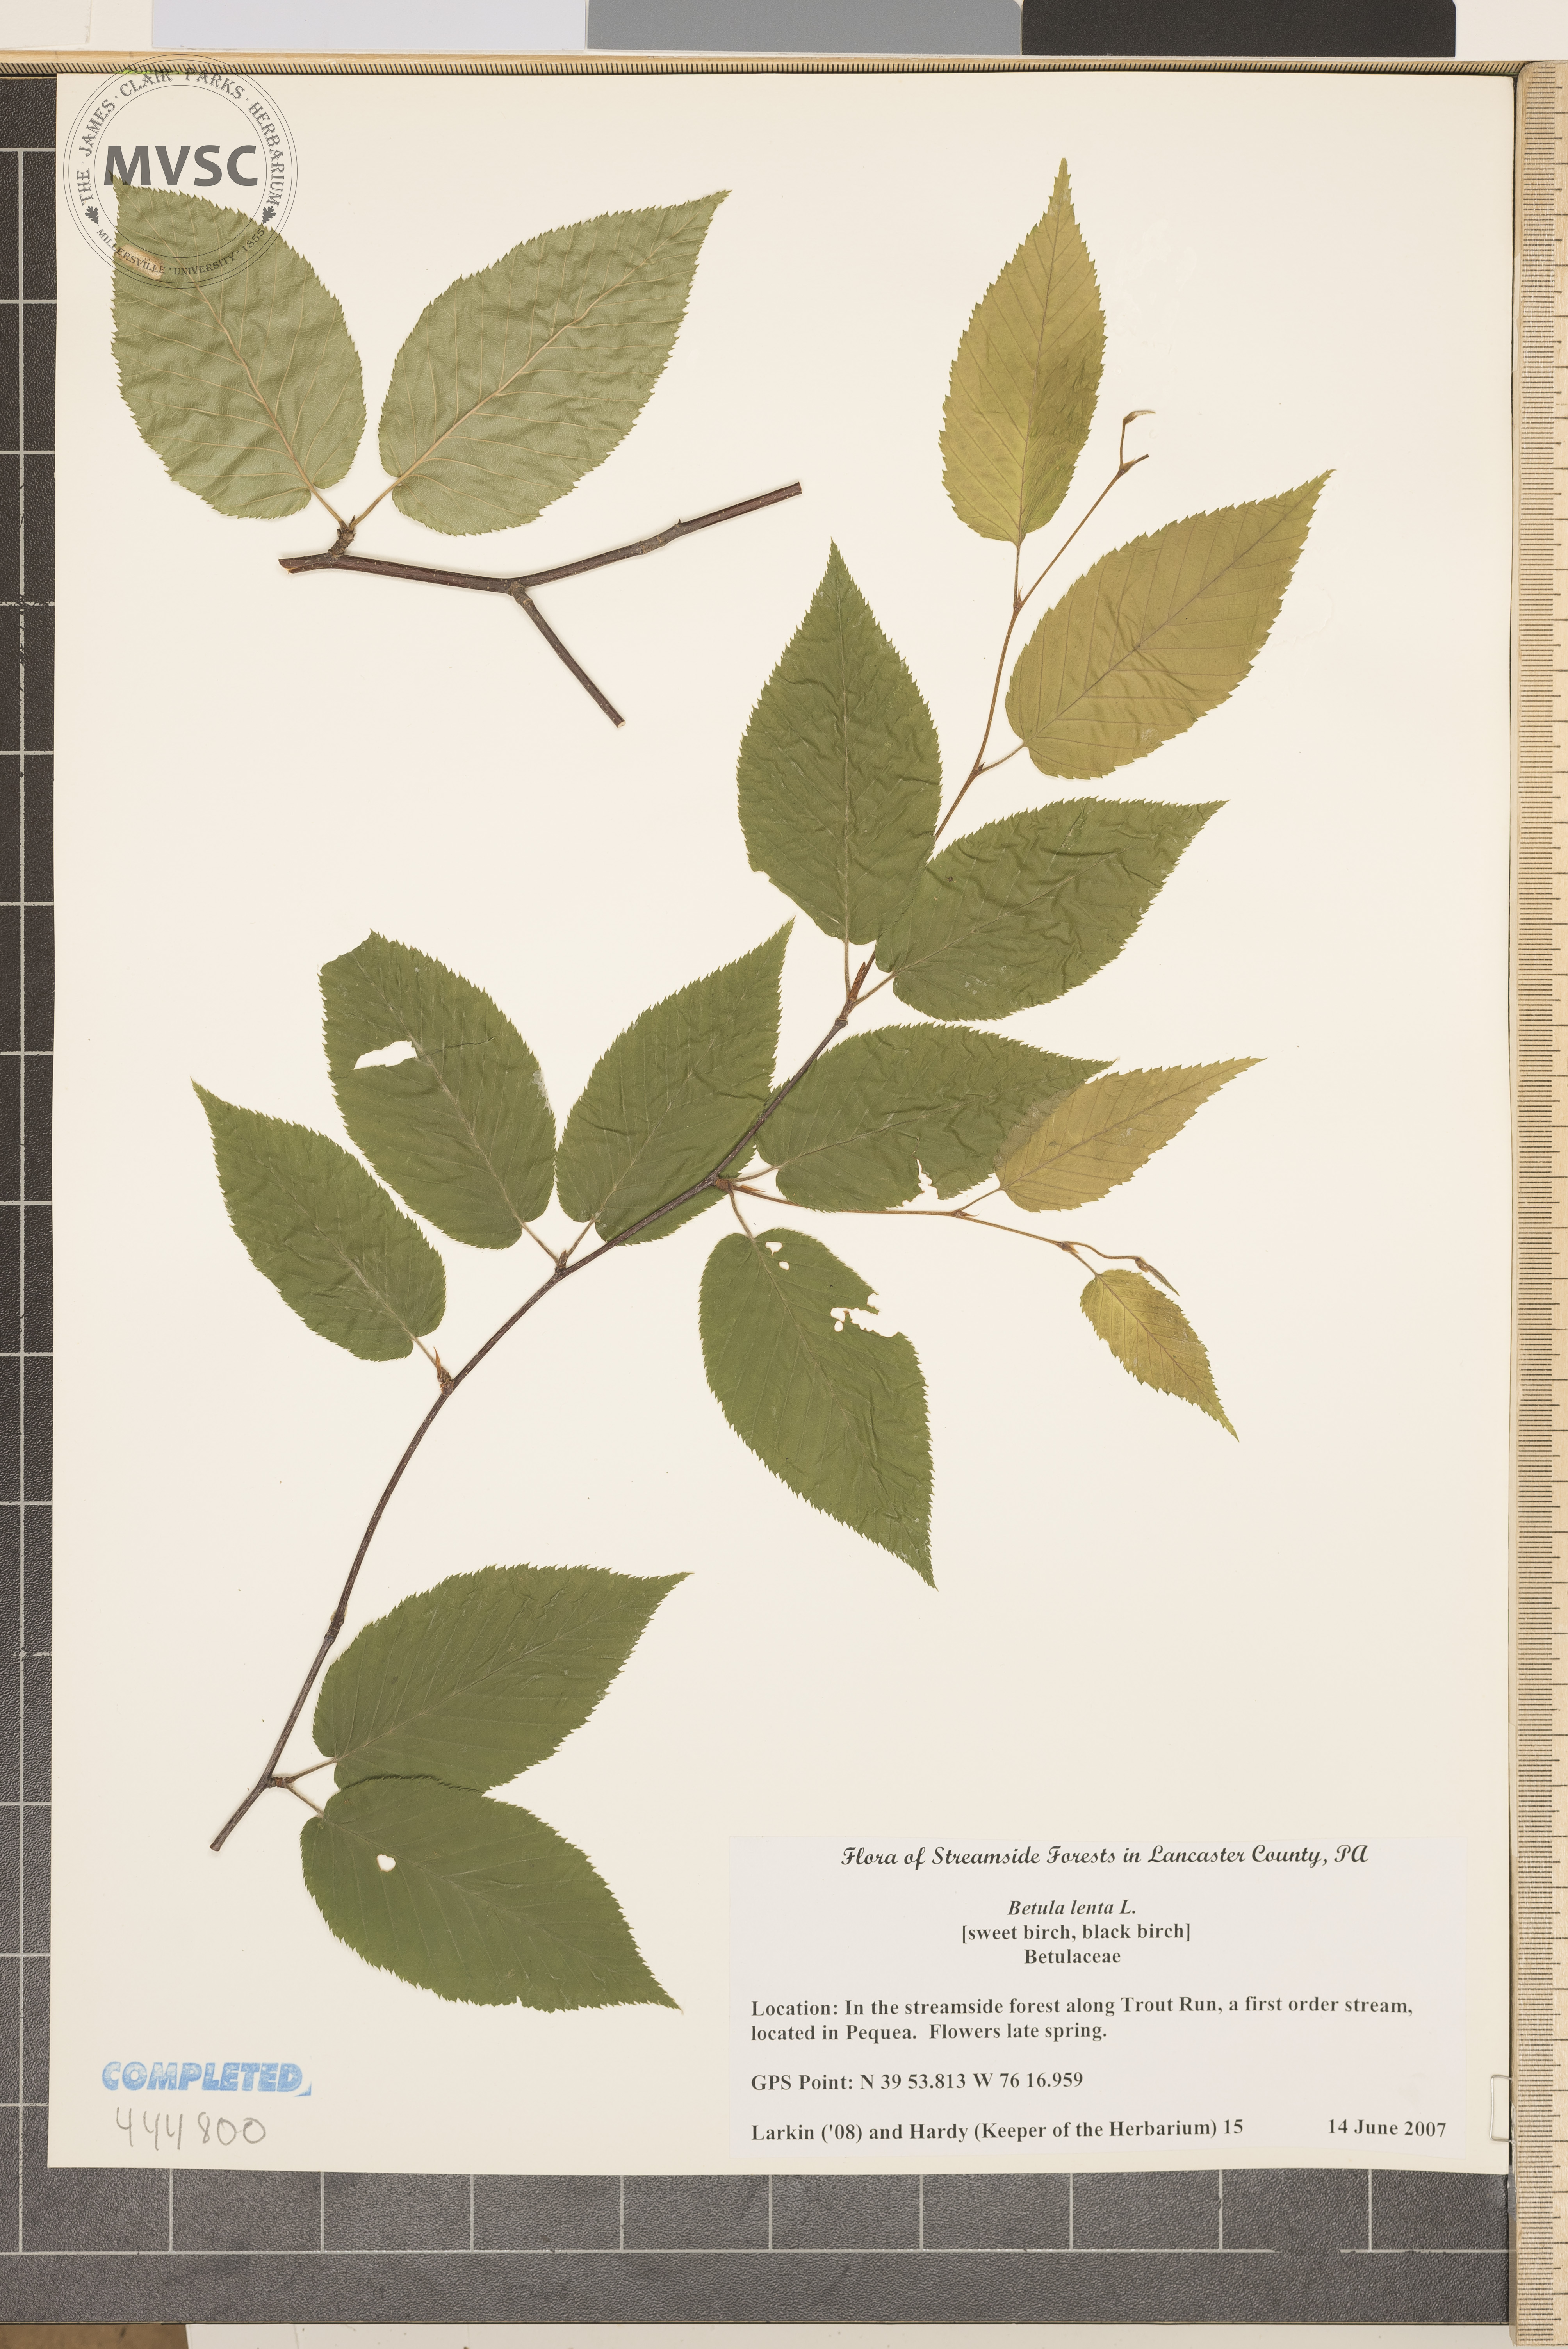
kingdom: Plantae
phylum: Tracheophyta
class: Magnoliopsida
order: Fagales
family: Betulaceae
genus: Betula
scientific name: Betula lenta
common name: Black birch
